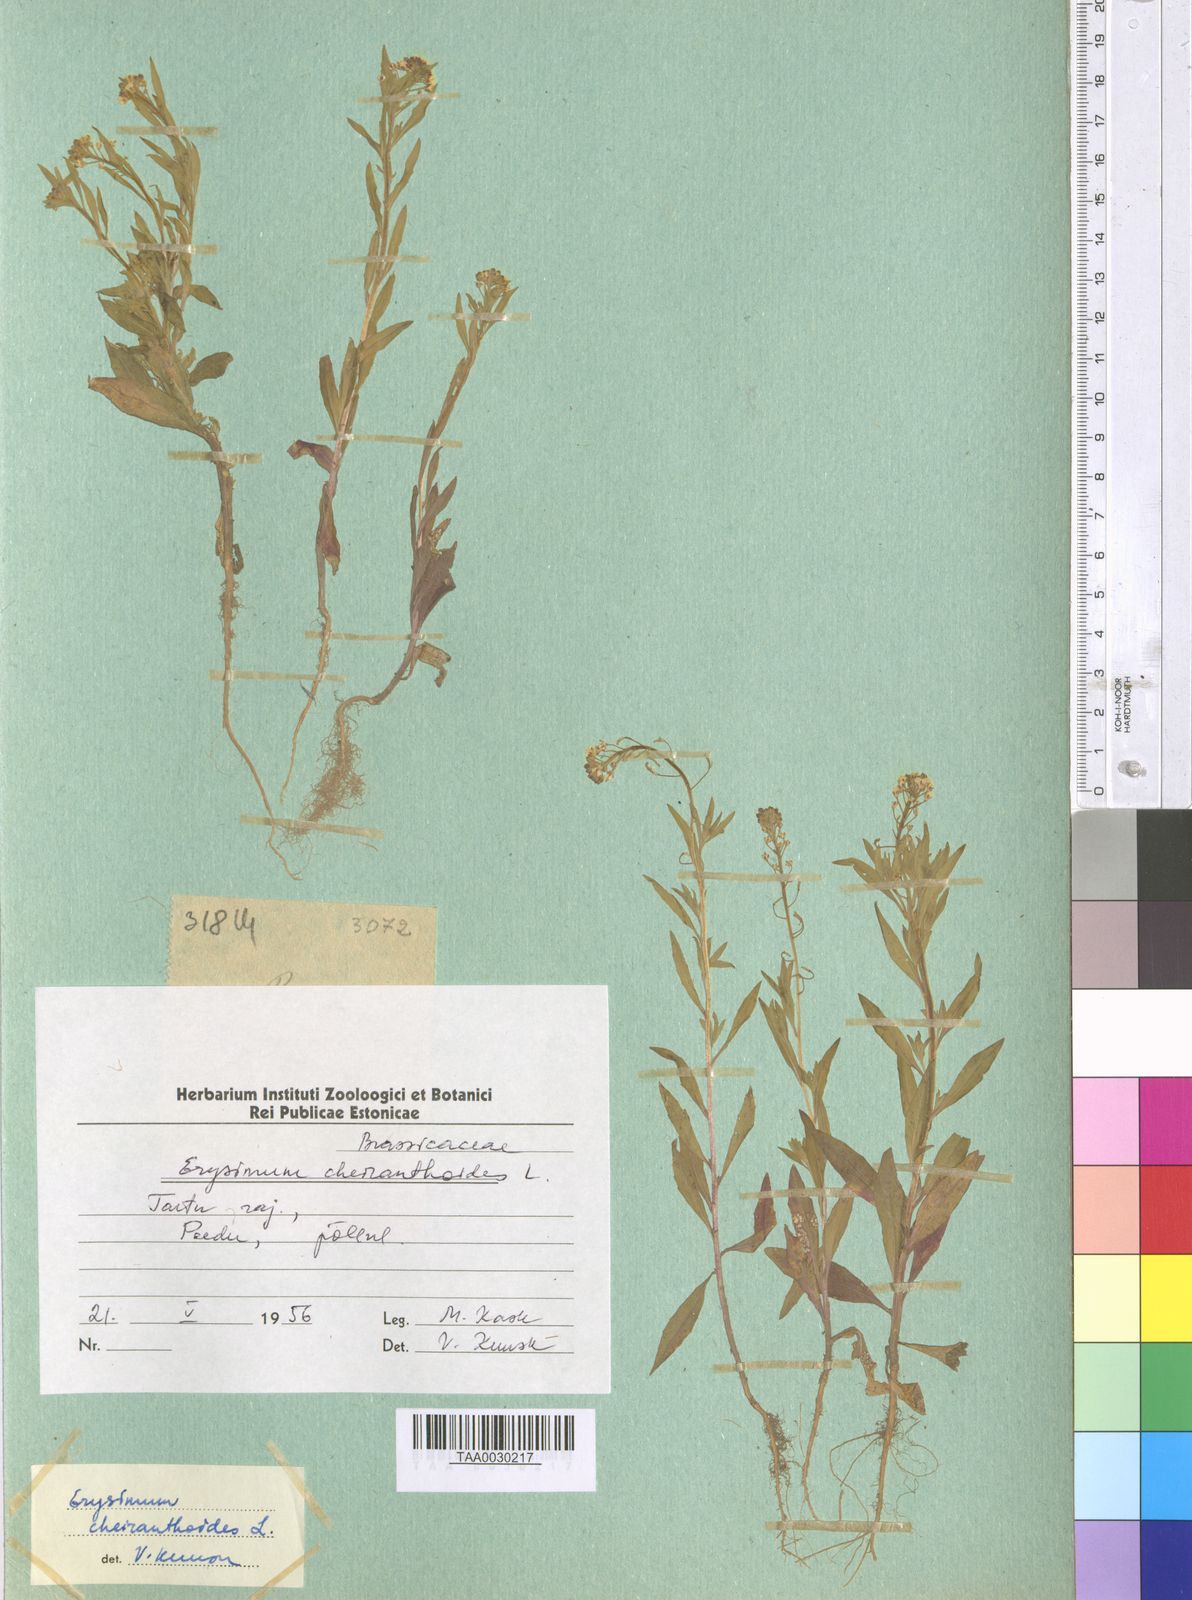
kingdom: Plantae
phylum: Tracheophyta
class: Magnoliopsida
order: Brassicales
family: Brassicaceae
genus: Erysimum
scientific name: Erysimum cheiranthoides
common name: Treacle mustard
